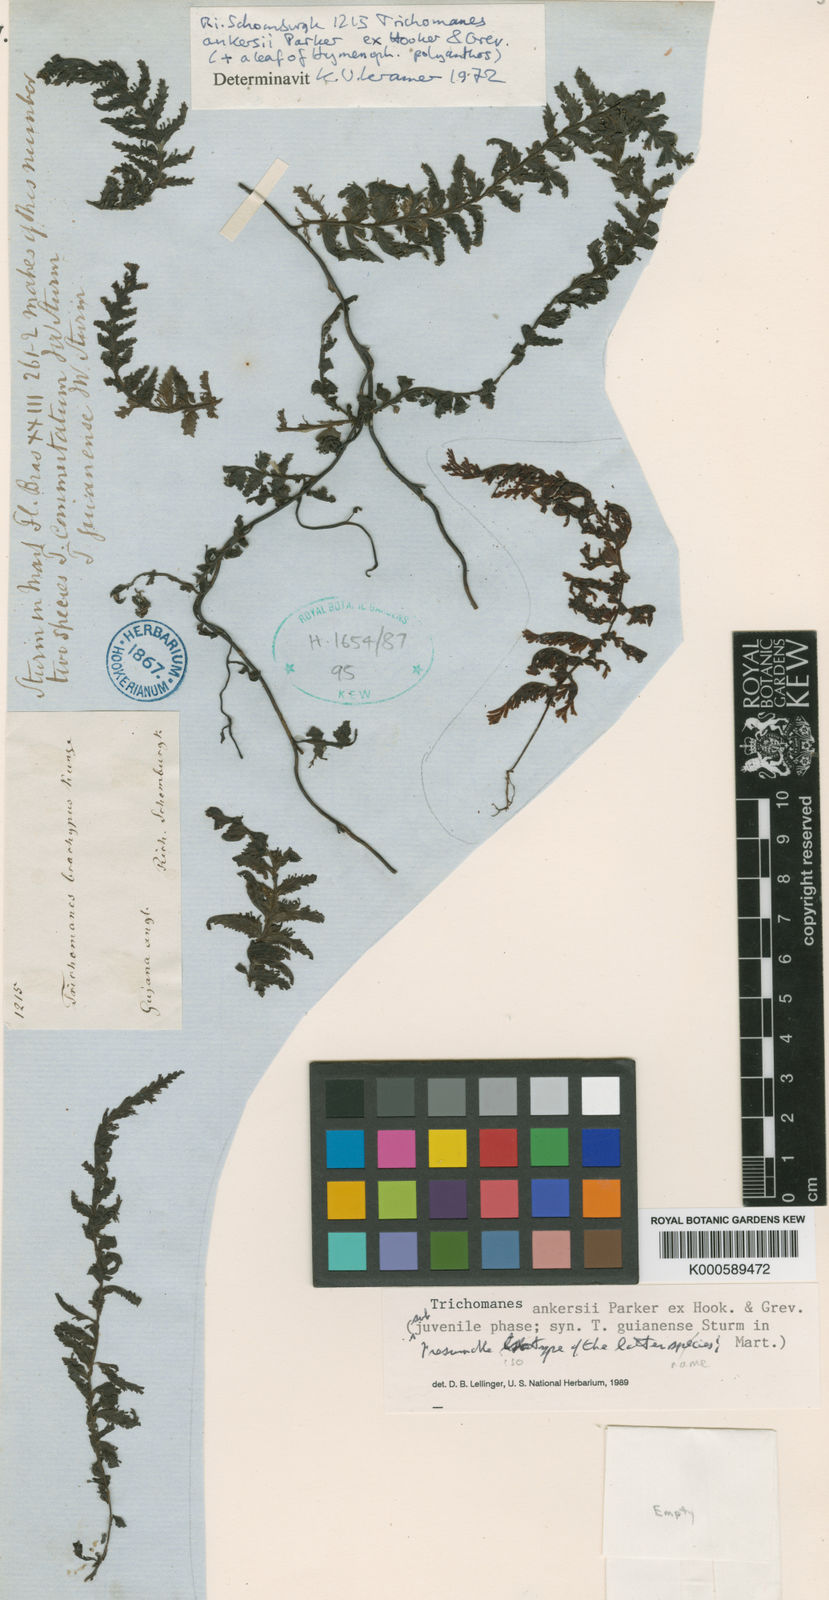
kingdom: Plantae
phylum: Tracheophyta
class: Polypodiopsida
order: Hymenophyllales
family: Hymenophyllaceae
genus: Trichomanes
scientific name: Trichomanes ankersii
